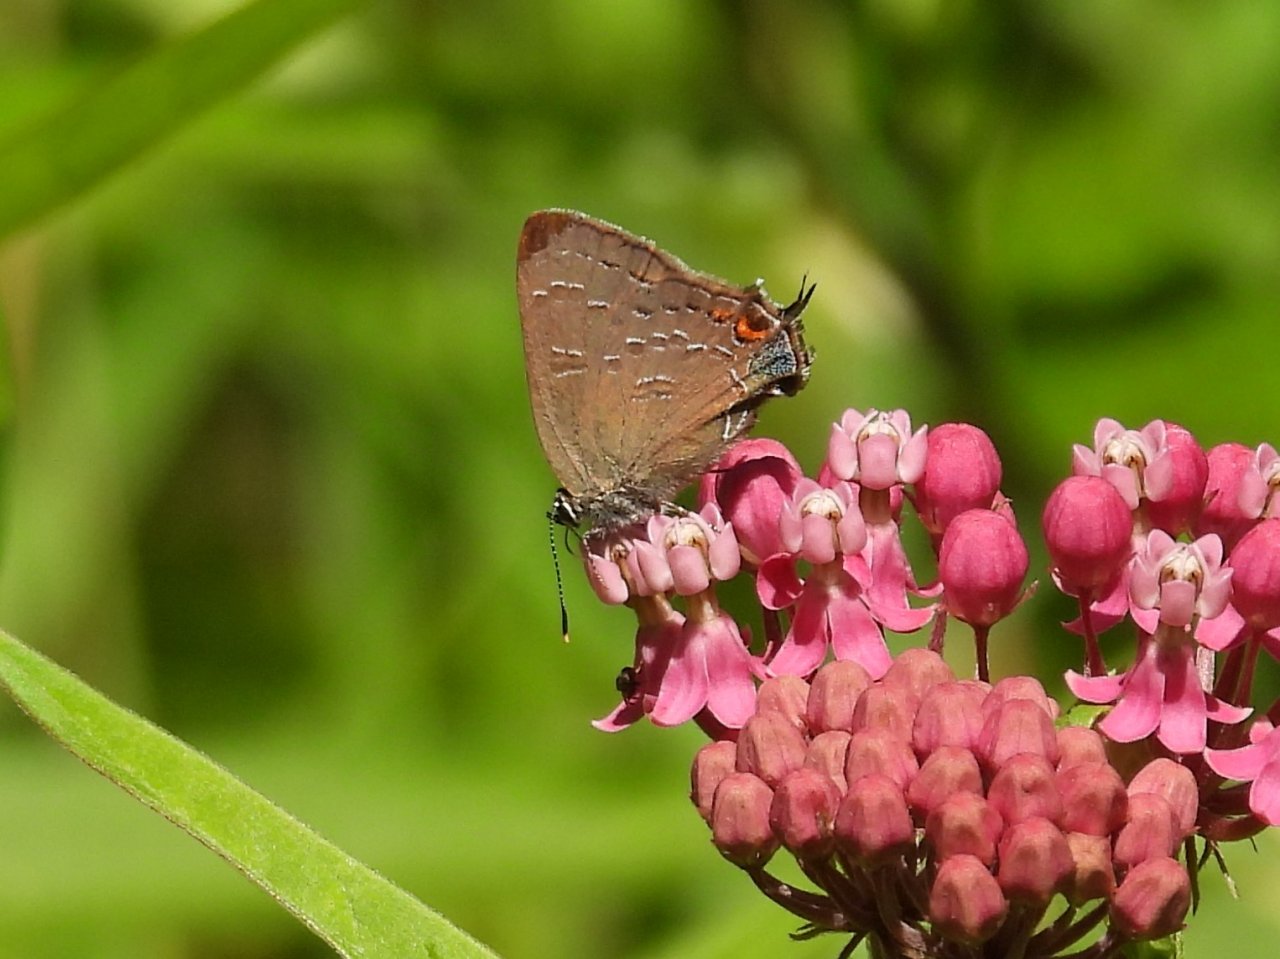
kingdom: Animalia
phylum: Arthropoda
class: Insecta
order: Lepidoptera
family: Lycaenidae
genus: Satyrium
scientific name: Satyrium calanus
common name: Banded Hairstreak
